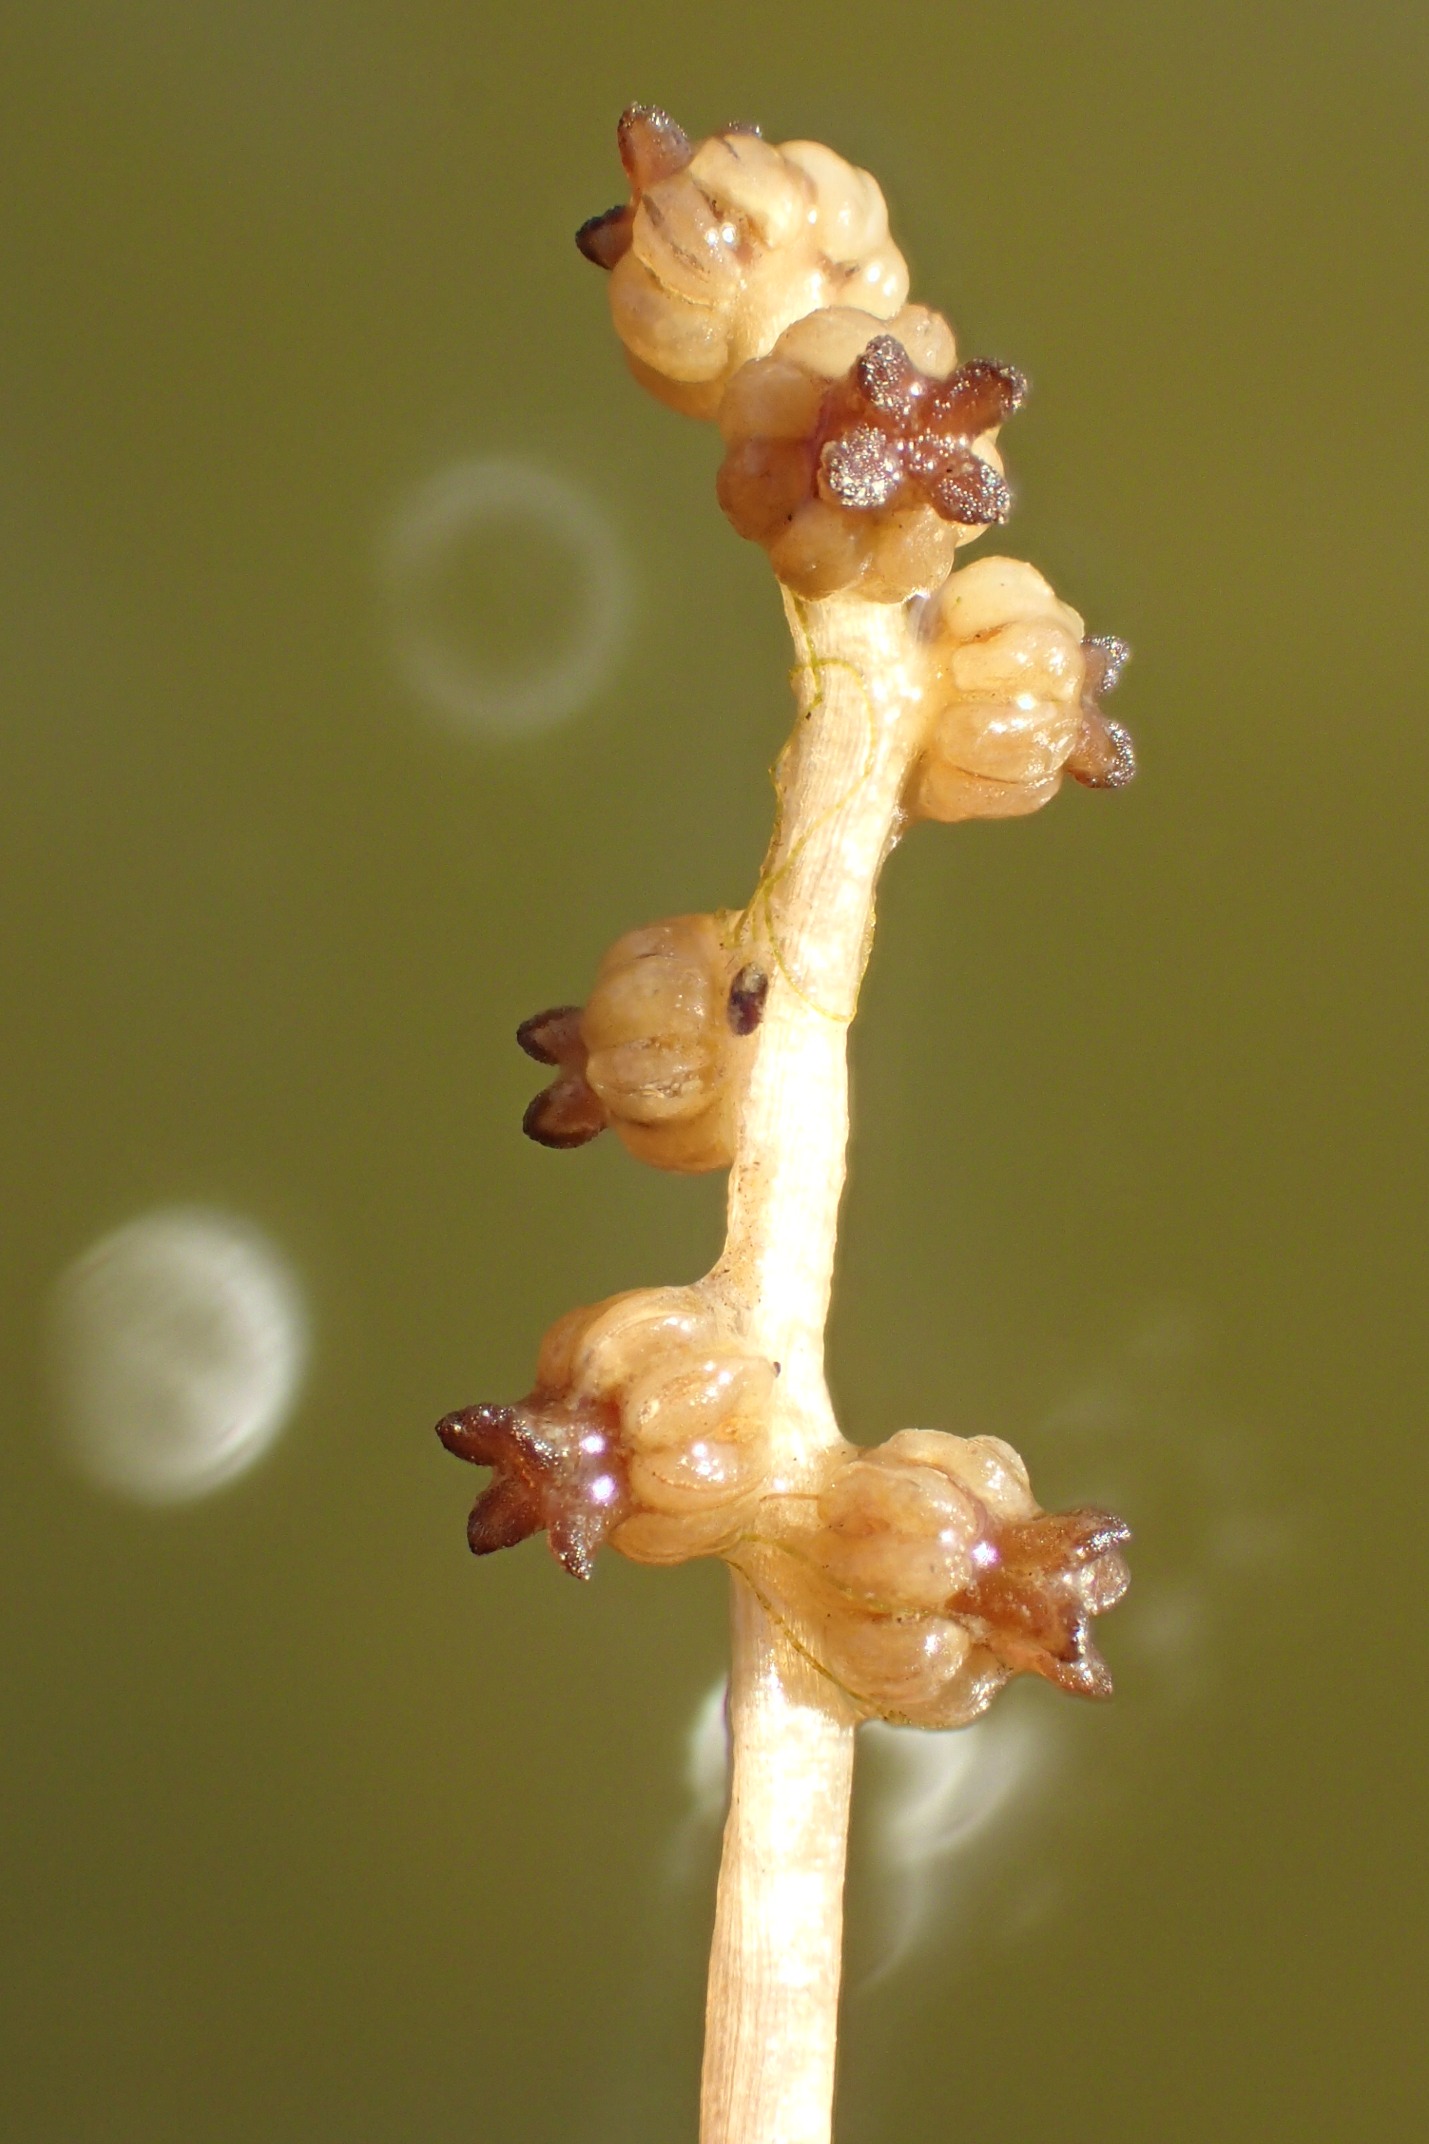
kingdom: Plantae
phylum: Tracheophyta
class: Liliopsida
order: Alismatales
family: Potamogetonaceae
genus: Potamogeton
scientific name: Potamogeton crispus
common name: Kruset vandaks
